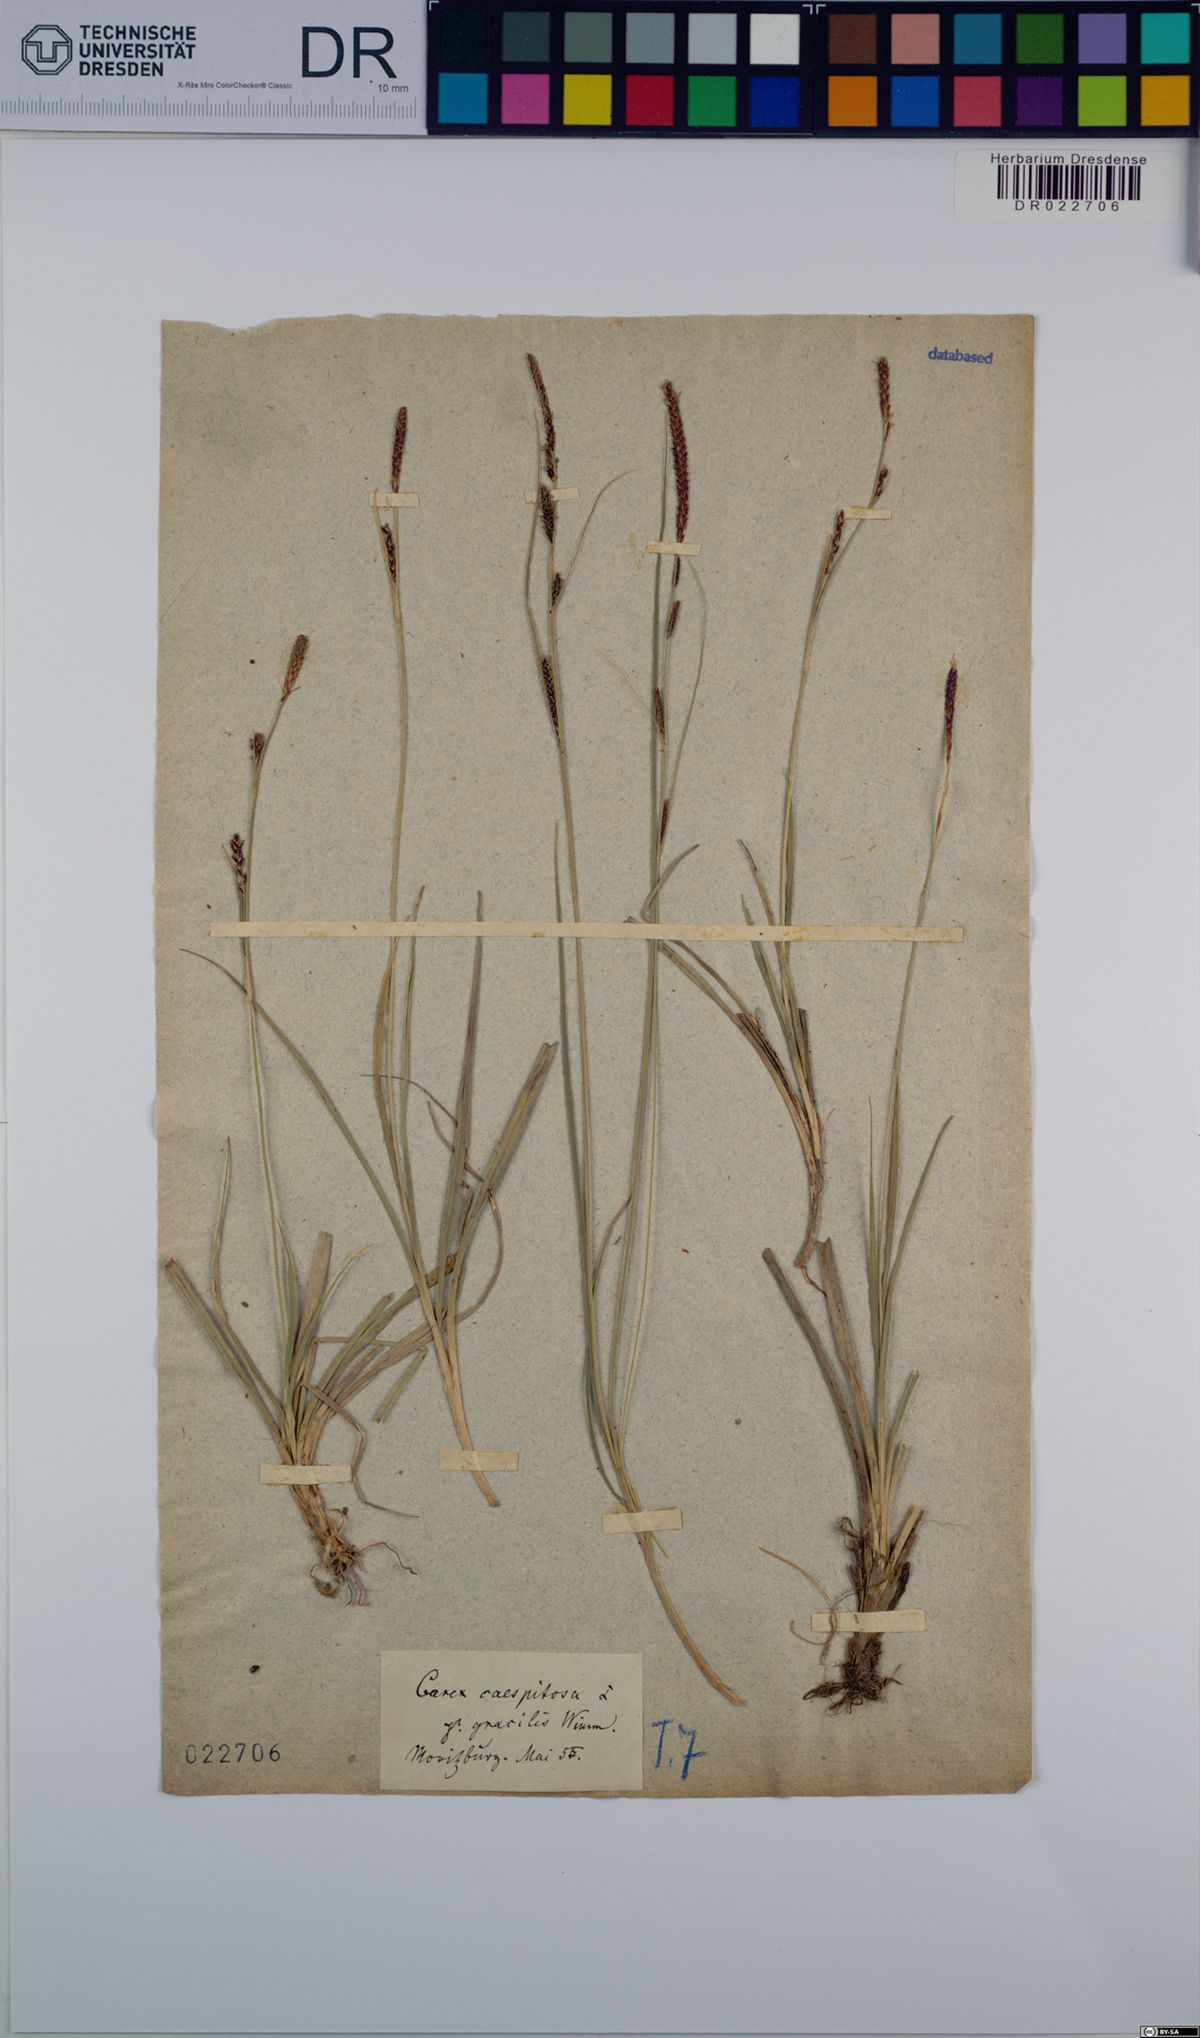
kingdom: Plantae
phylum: Tracheophyta
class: Liliopsida
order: Poales
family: Cyperaceae
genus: Carex
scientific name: Carex cespitosa
